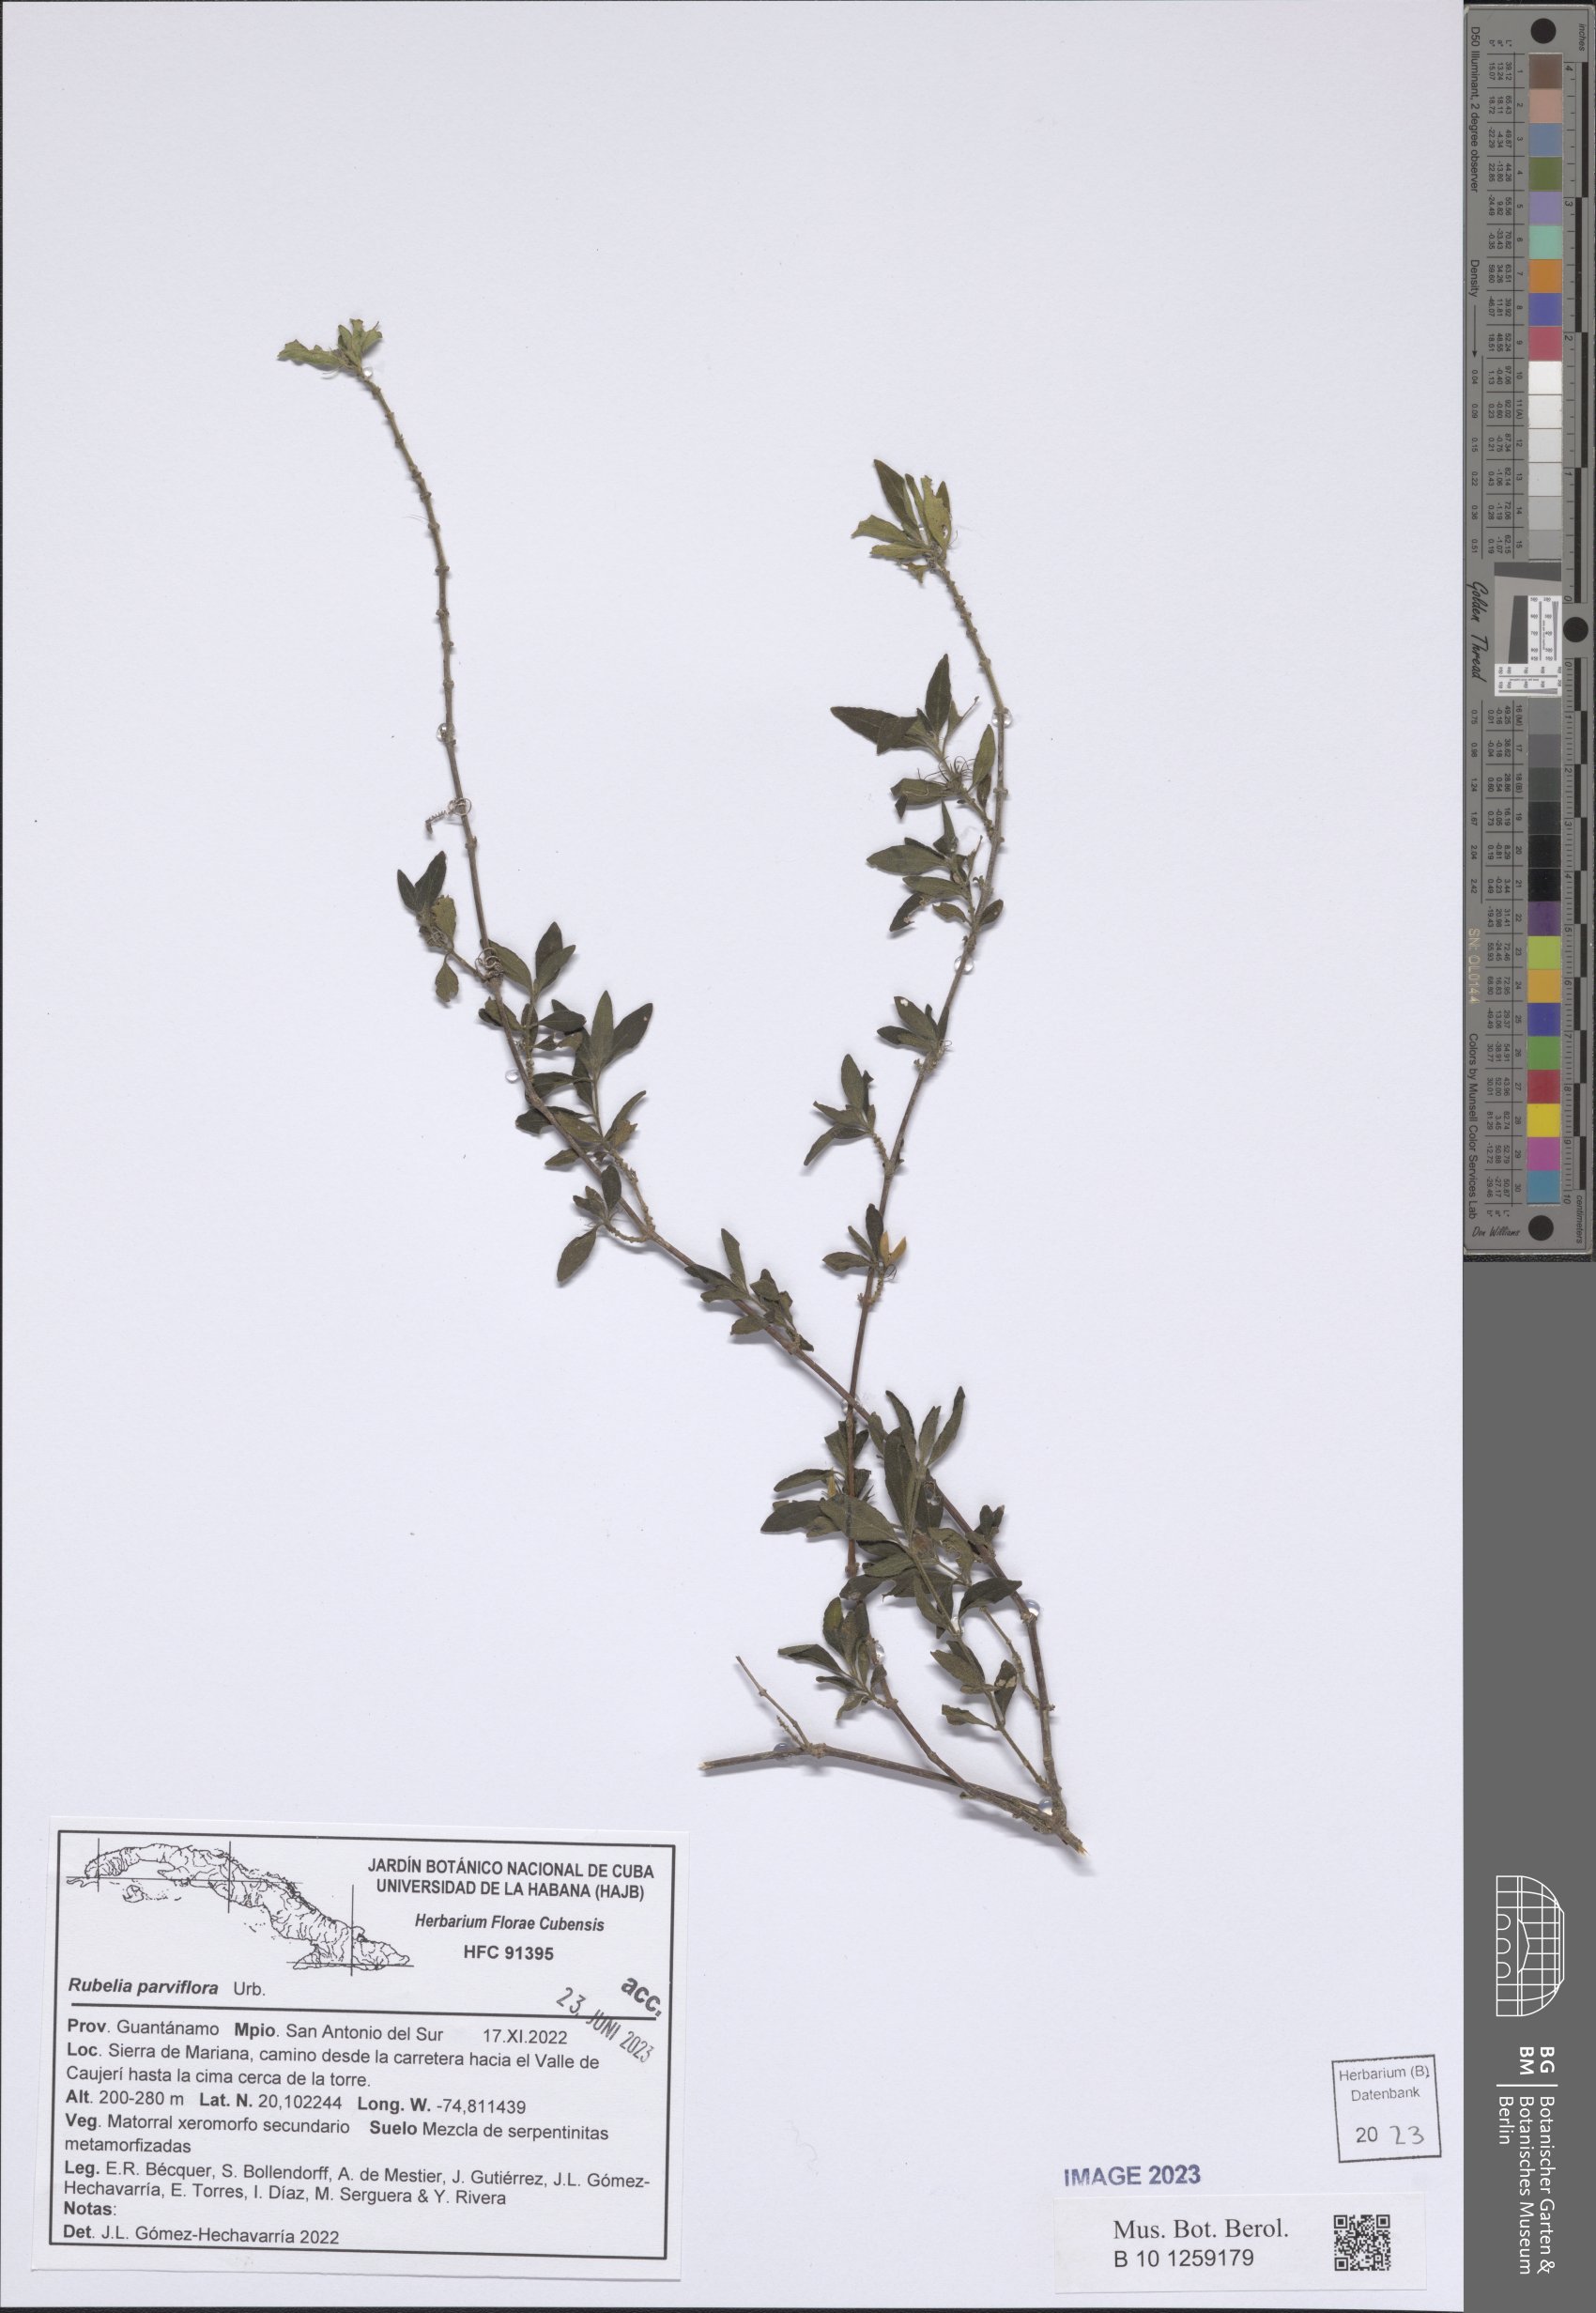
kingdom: Plantae
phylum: Tracheophyta
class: Magnoliopsida
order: Lamiales
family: Acanthaceae
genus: Ruellia
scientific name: Ruellia parviflora
